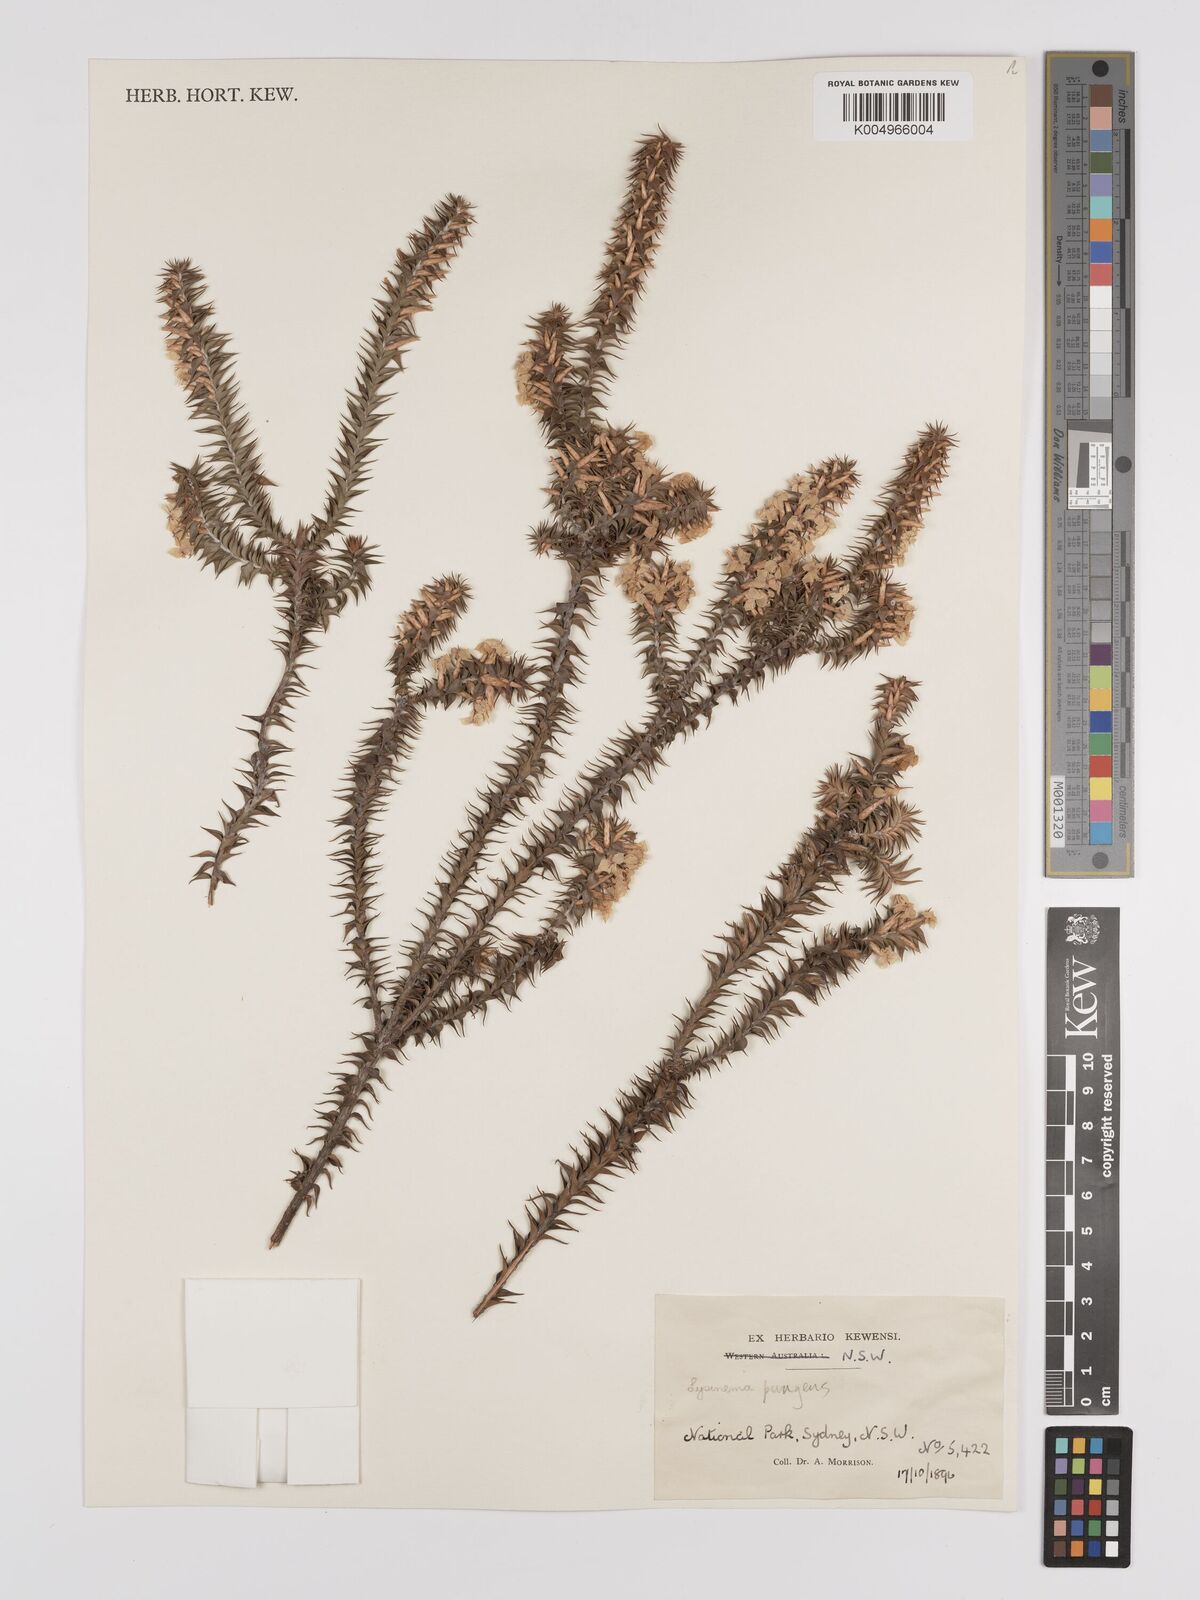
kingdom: Plantae
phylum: Tracheophyta
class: Magnoliopsida
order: Ericales
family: Ericaceae
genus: Woollsia
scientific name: Woollsia pungens
